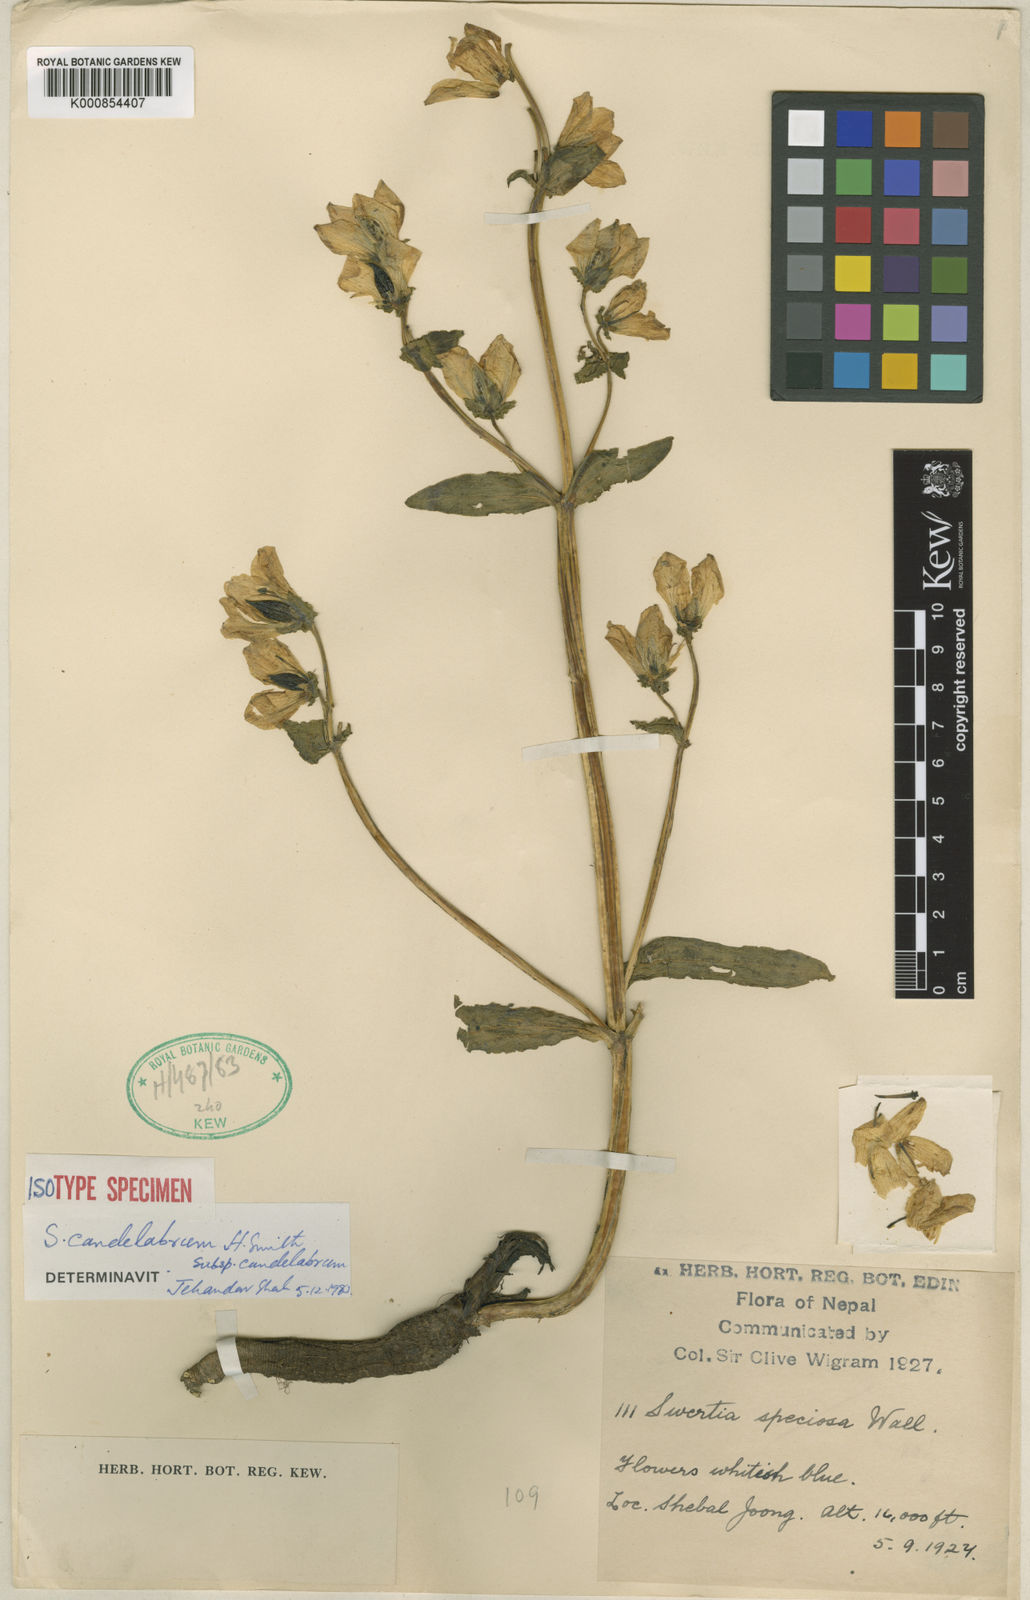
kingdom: Plantae
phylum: Tracheophyta
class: Magnoliopsida
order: Gentianales
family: Gentianaceae
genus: Swertia
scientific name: Swertia candelabrum
